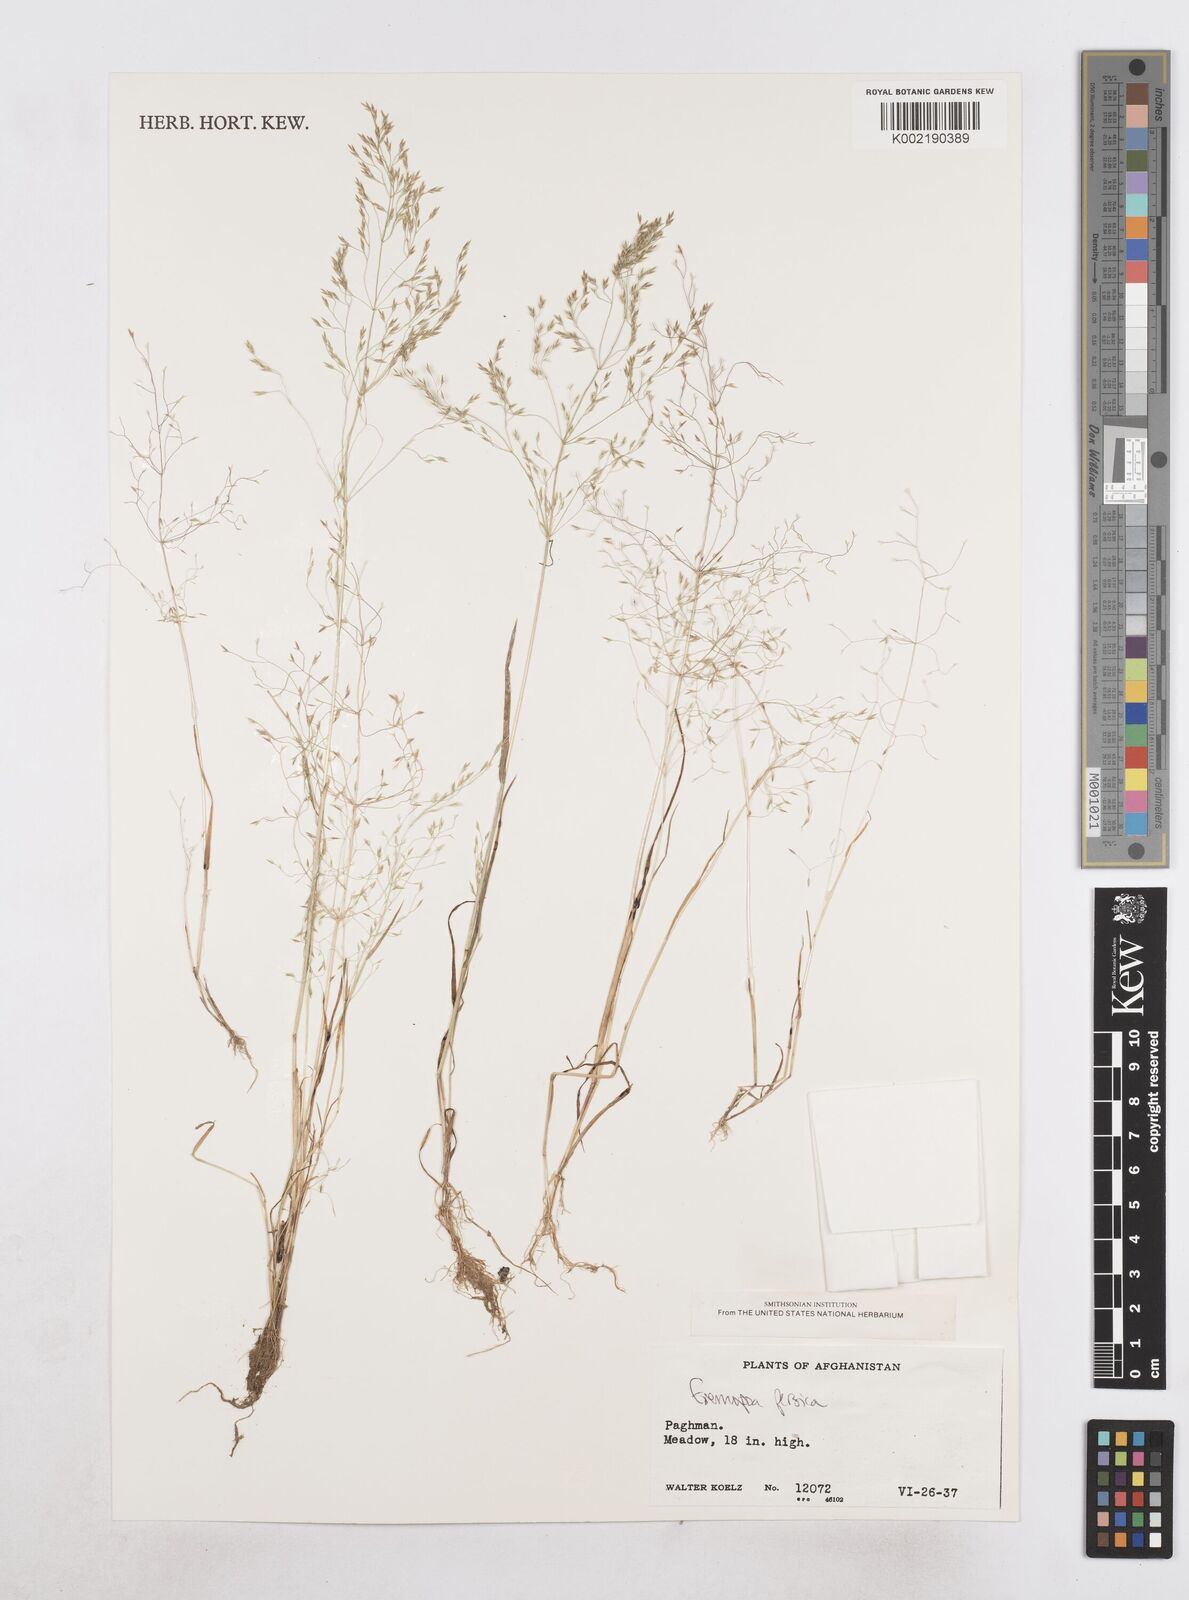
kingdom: Plantae
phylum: Tracheophyta
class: Liliopsida
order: Poales
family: Poaceae
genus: Poa
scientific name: Poa persica
